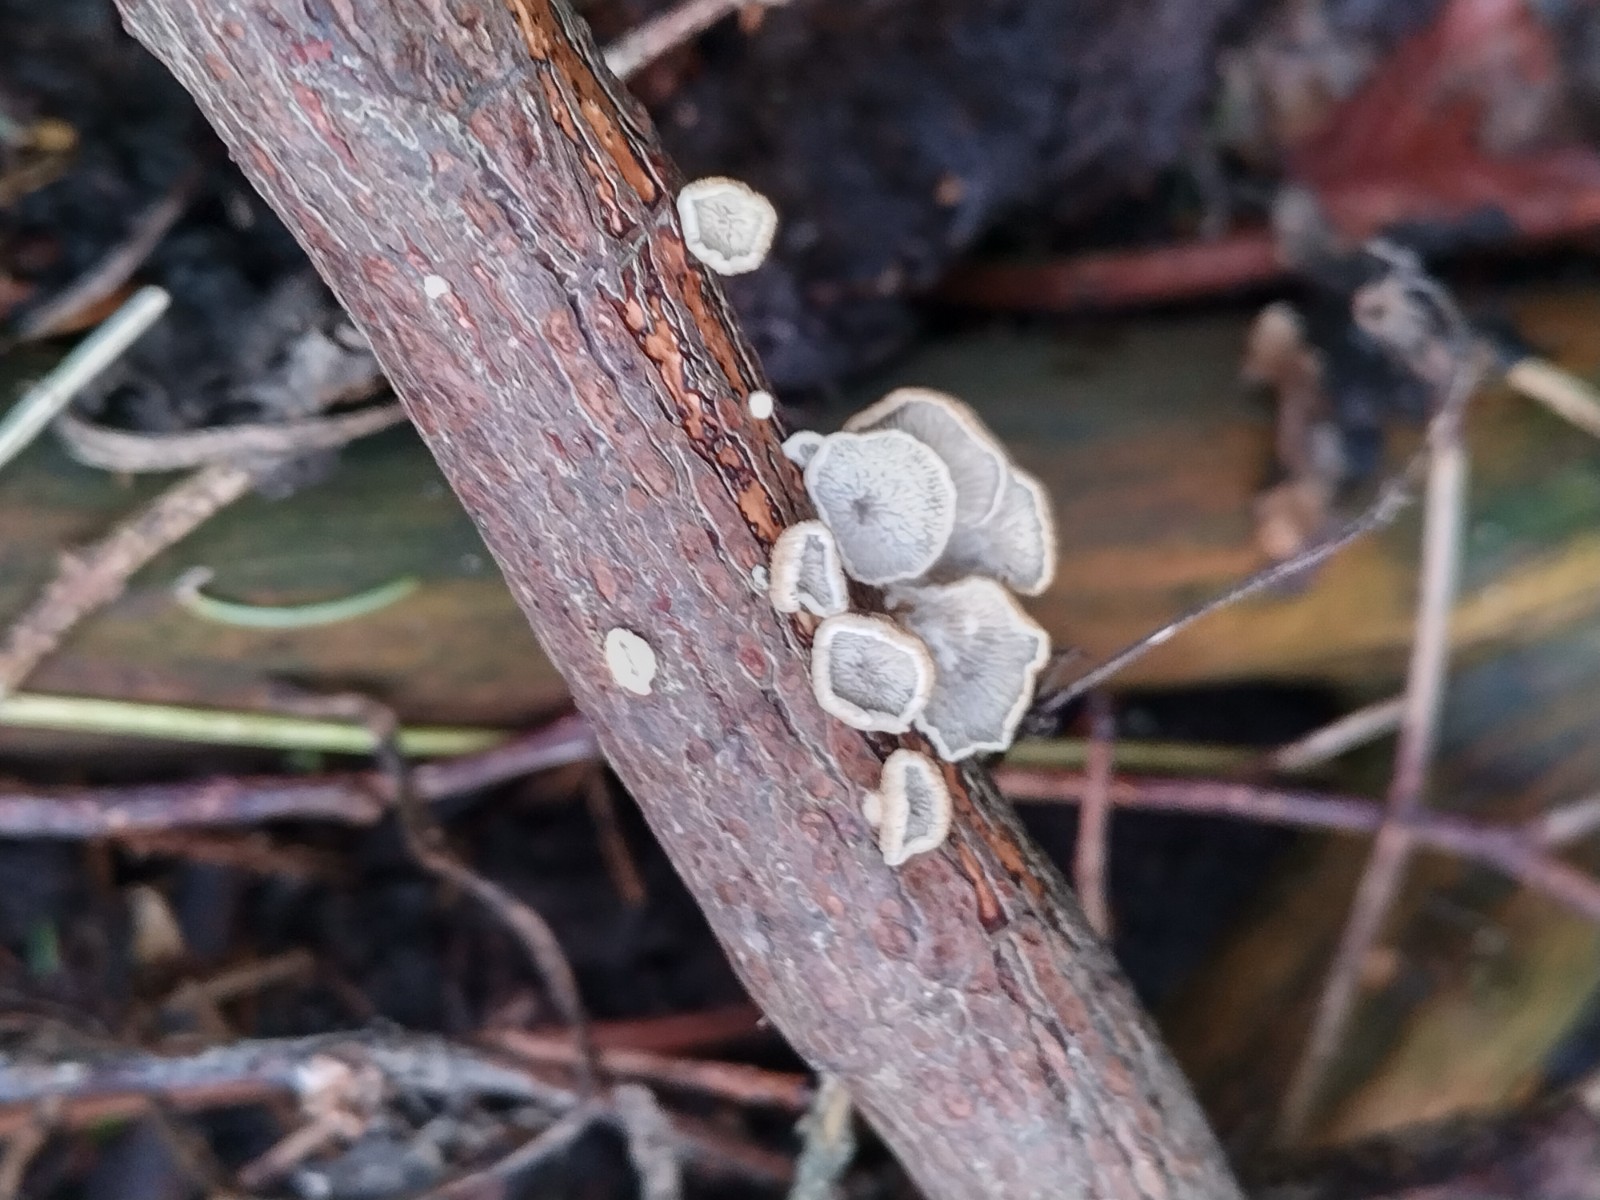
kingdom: Fungi
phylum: Basidiomycota
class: Agaricomycetes
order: Amylocorticiales
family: Amylocorticiaceae
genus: Plicaturopsis
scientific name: Plicaturopsis crispa
